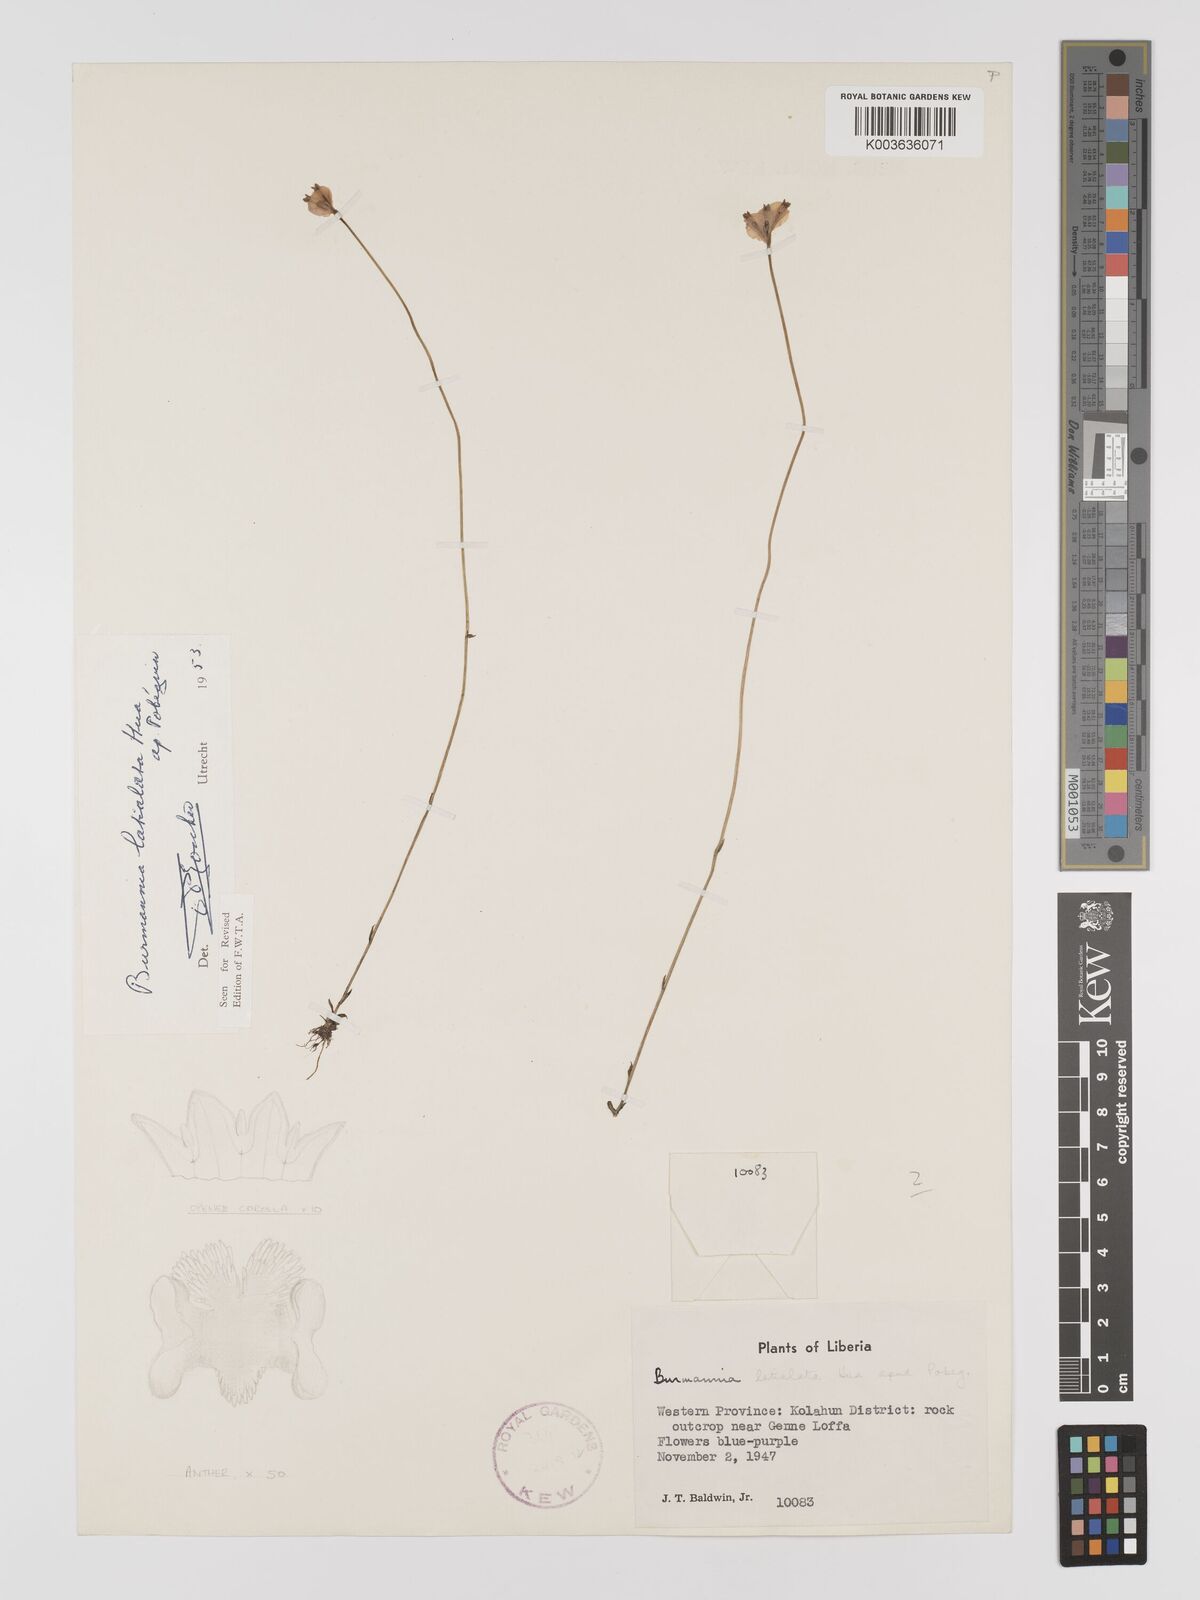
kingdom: Plantae
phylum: Tracheophyta
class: Liliopsida
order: Dioscoreales
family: Burmanniaceae
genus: Burmannia
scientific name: Burmannia madagascariensis
